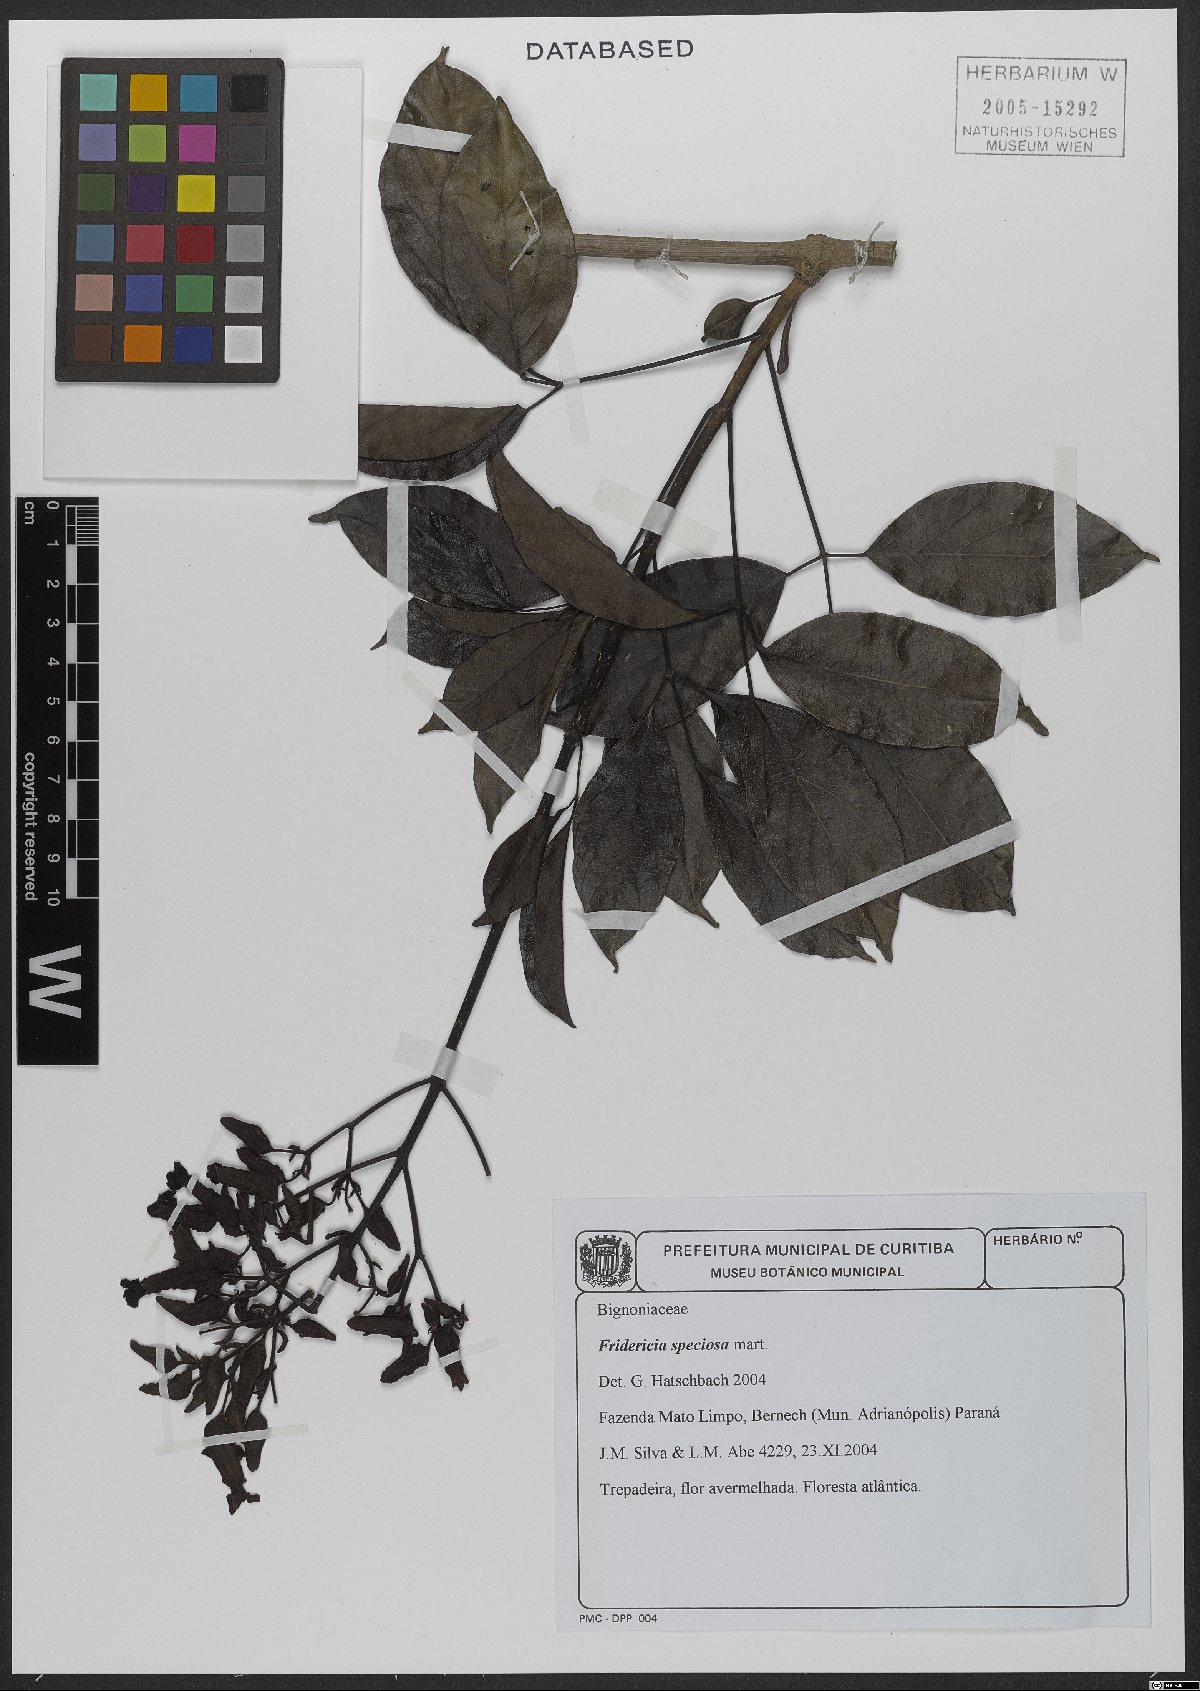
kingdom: Plantae
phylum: Tracheophyta
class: Magnoliopsida
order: Lamiales
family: Bignoniaceae
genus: Fridericia
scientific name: Fridericia speciosa
